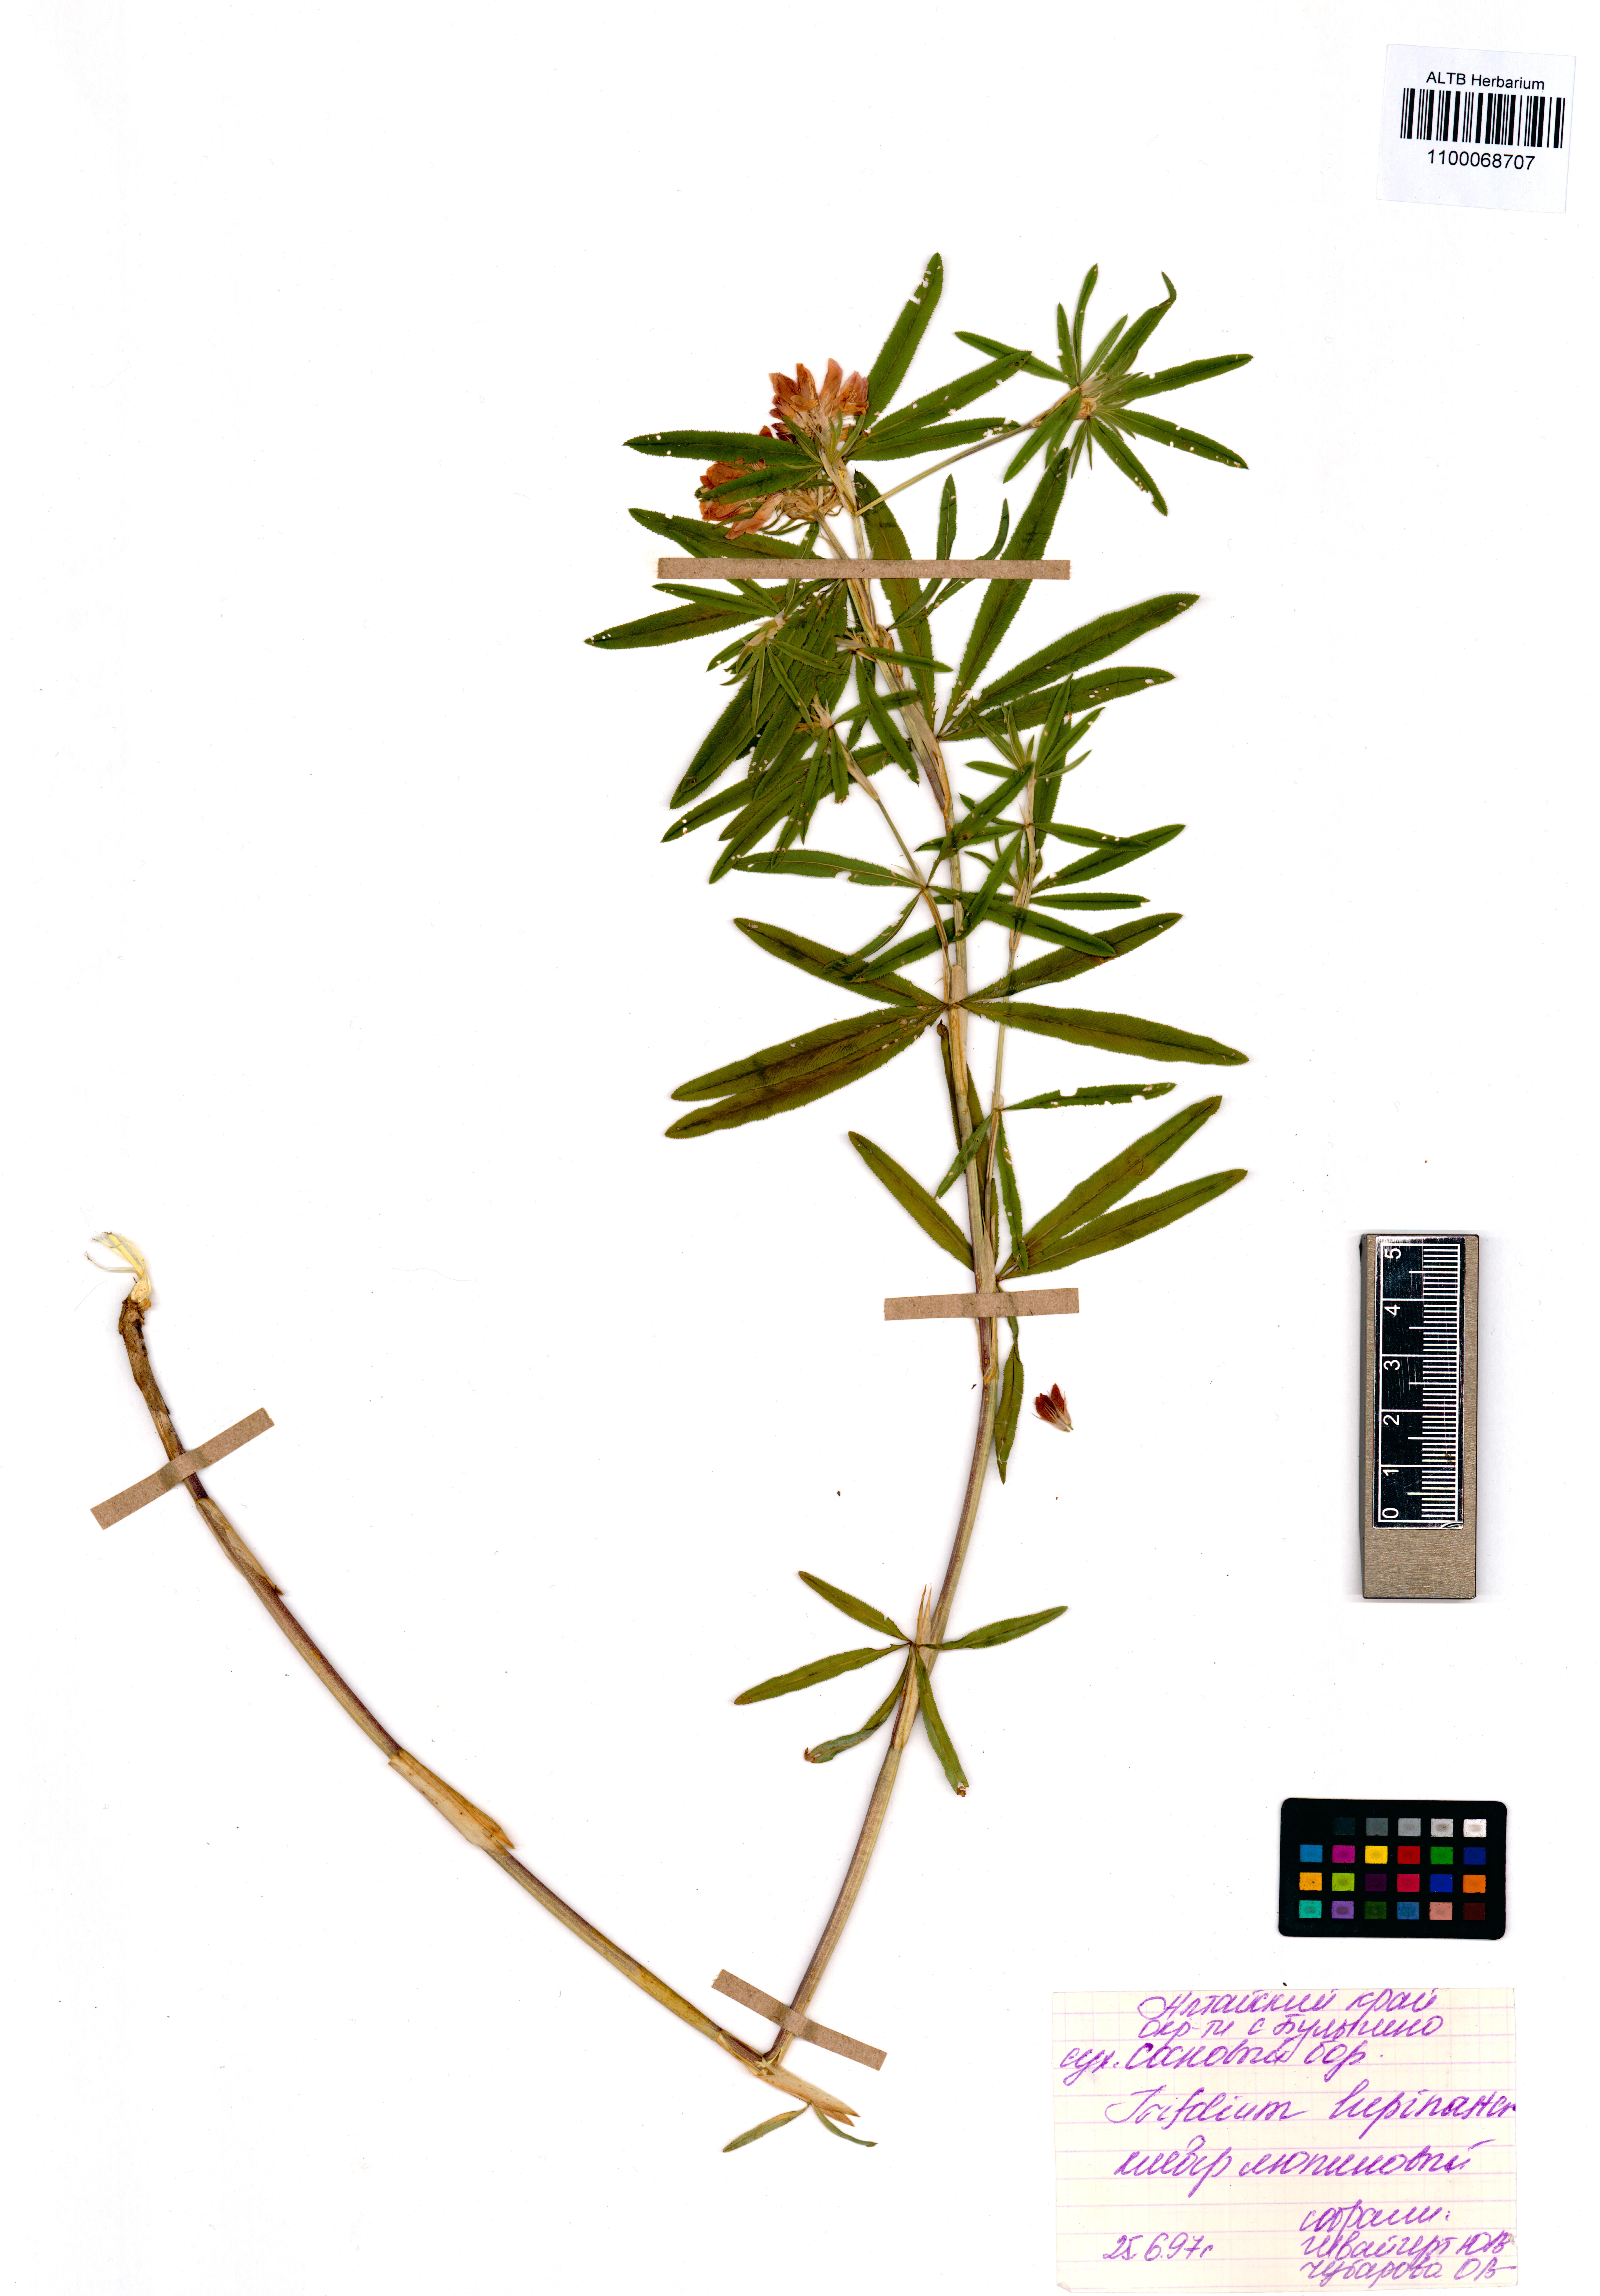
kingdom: Plantae
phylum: Tracheophyta
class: Magnoliopsida
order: Fabales
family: Fabaceae
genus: Trifolium
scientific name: Trifolium lupinaster
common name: Lupine clover
